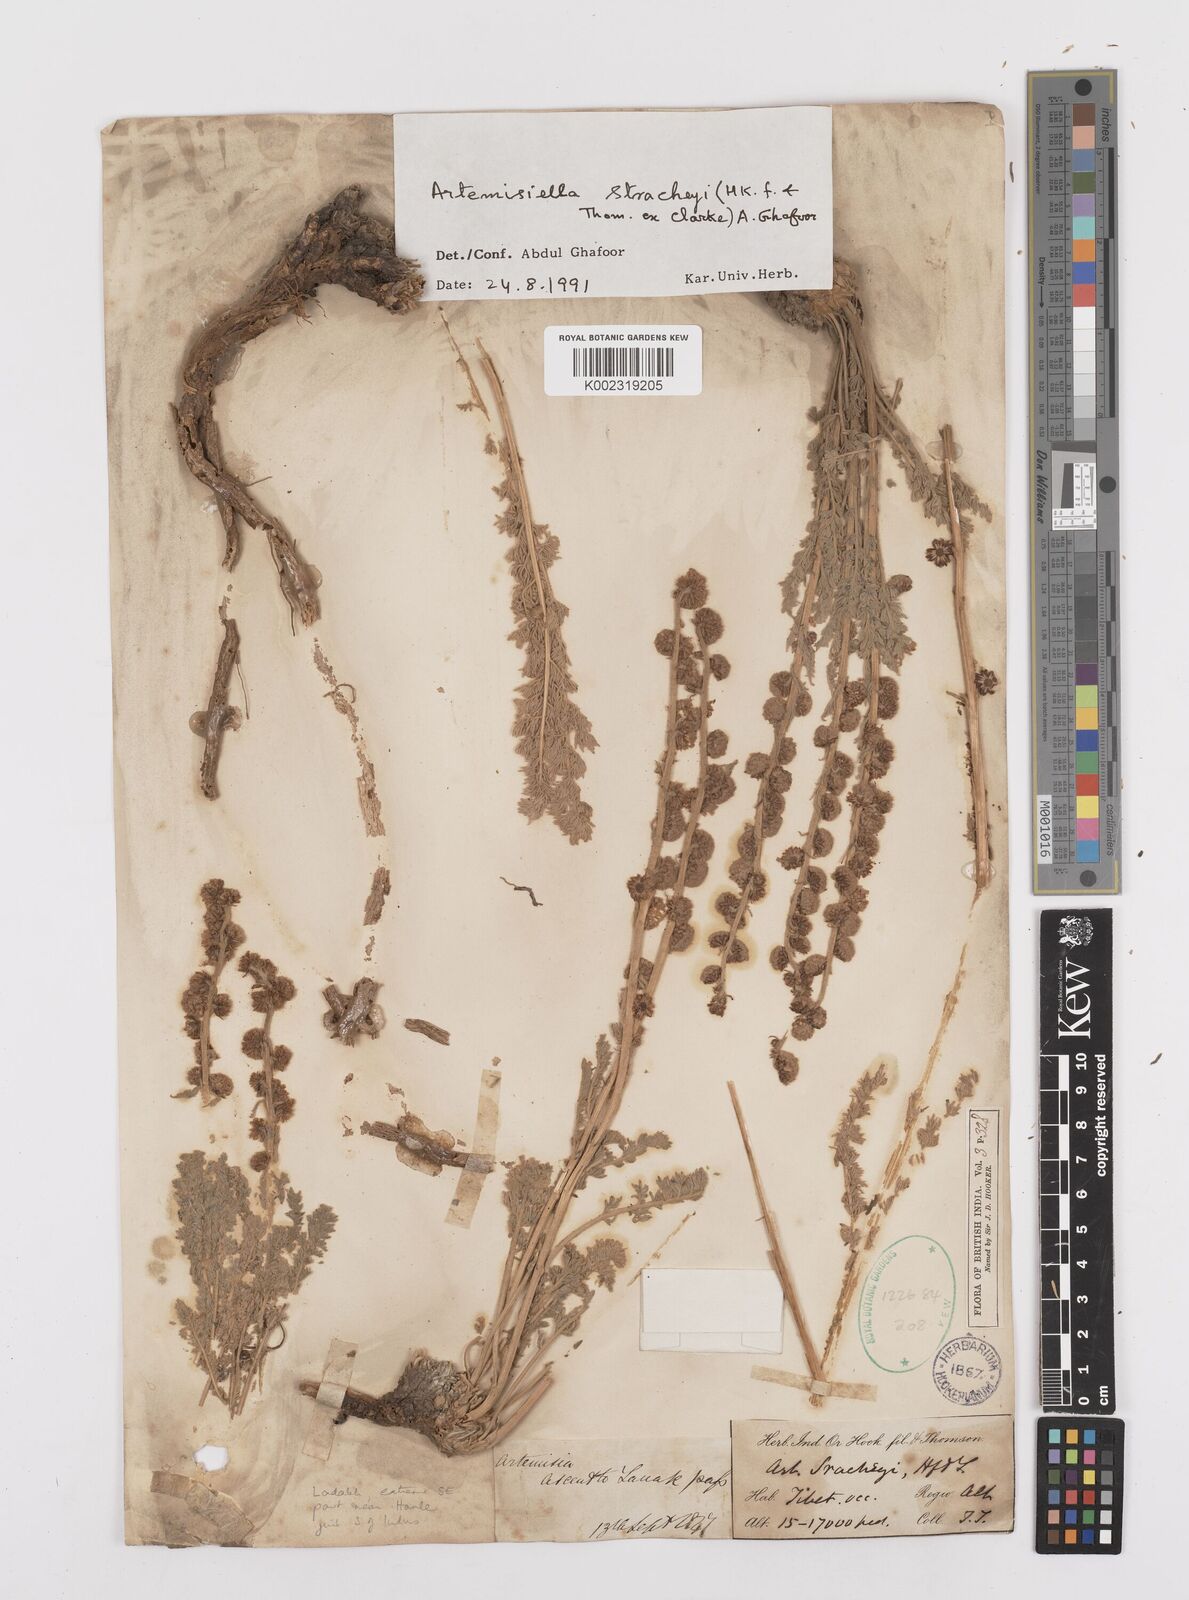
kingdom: Plantae
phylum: Tracheophyta
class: Magnoliopsida
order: Asterales
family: Asteraceae
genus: Artemisiella
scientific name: Artemisiella stracheyi
